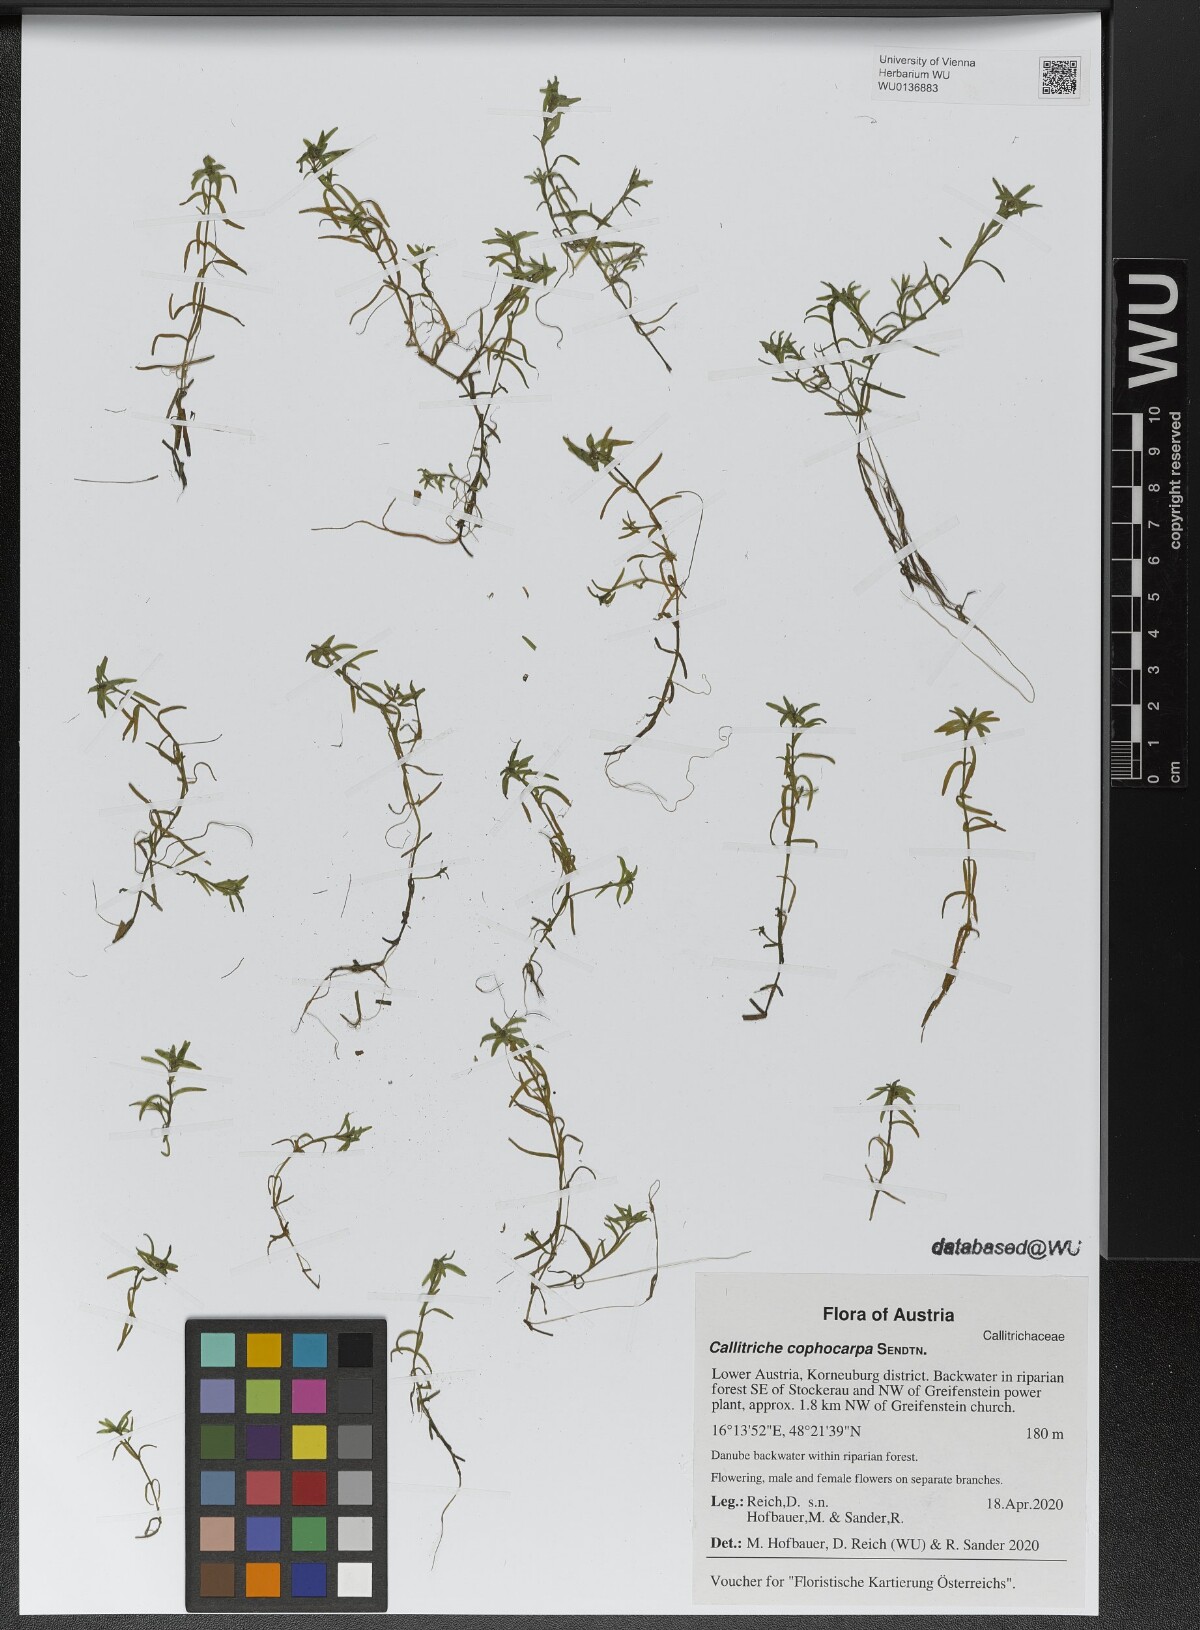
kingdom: Plantae
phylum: Tracheophyta
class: Magnoliopsida
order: Lamiales
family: Plantaginaceae
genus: Callitriche
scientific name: Callitriche cophocarpa
